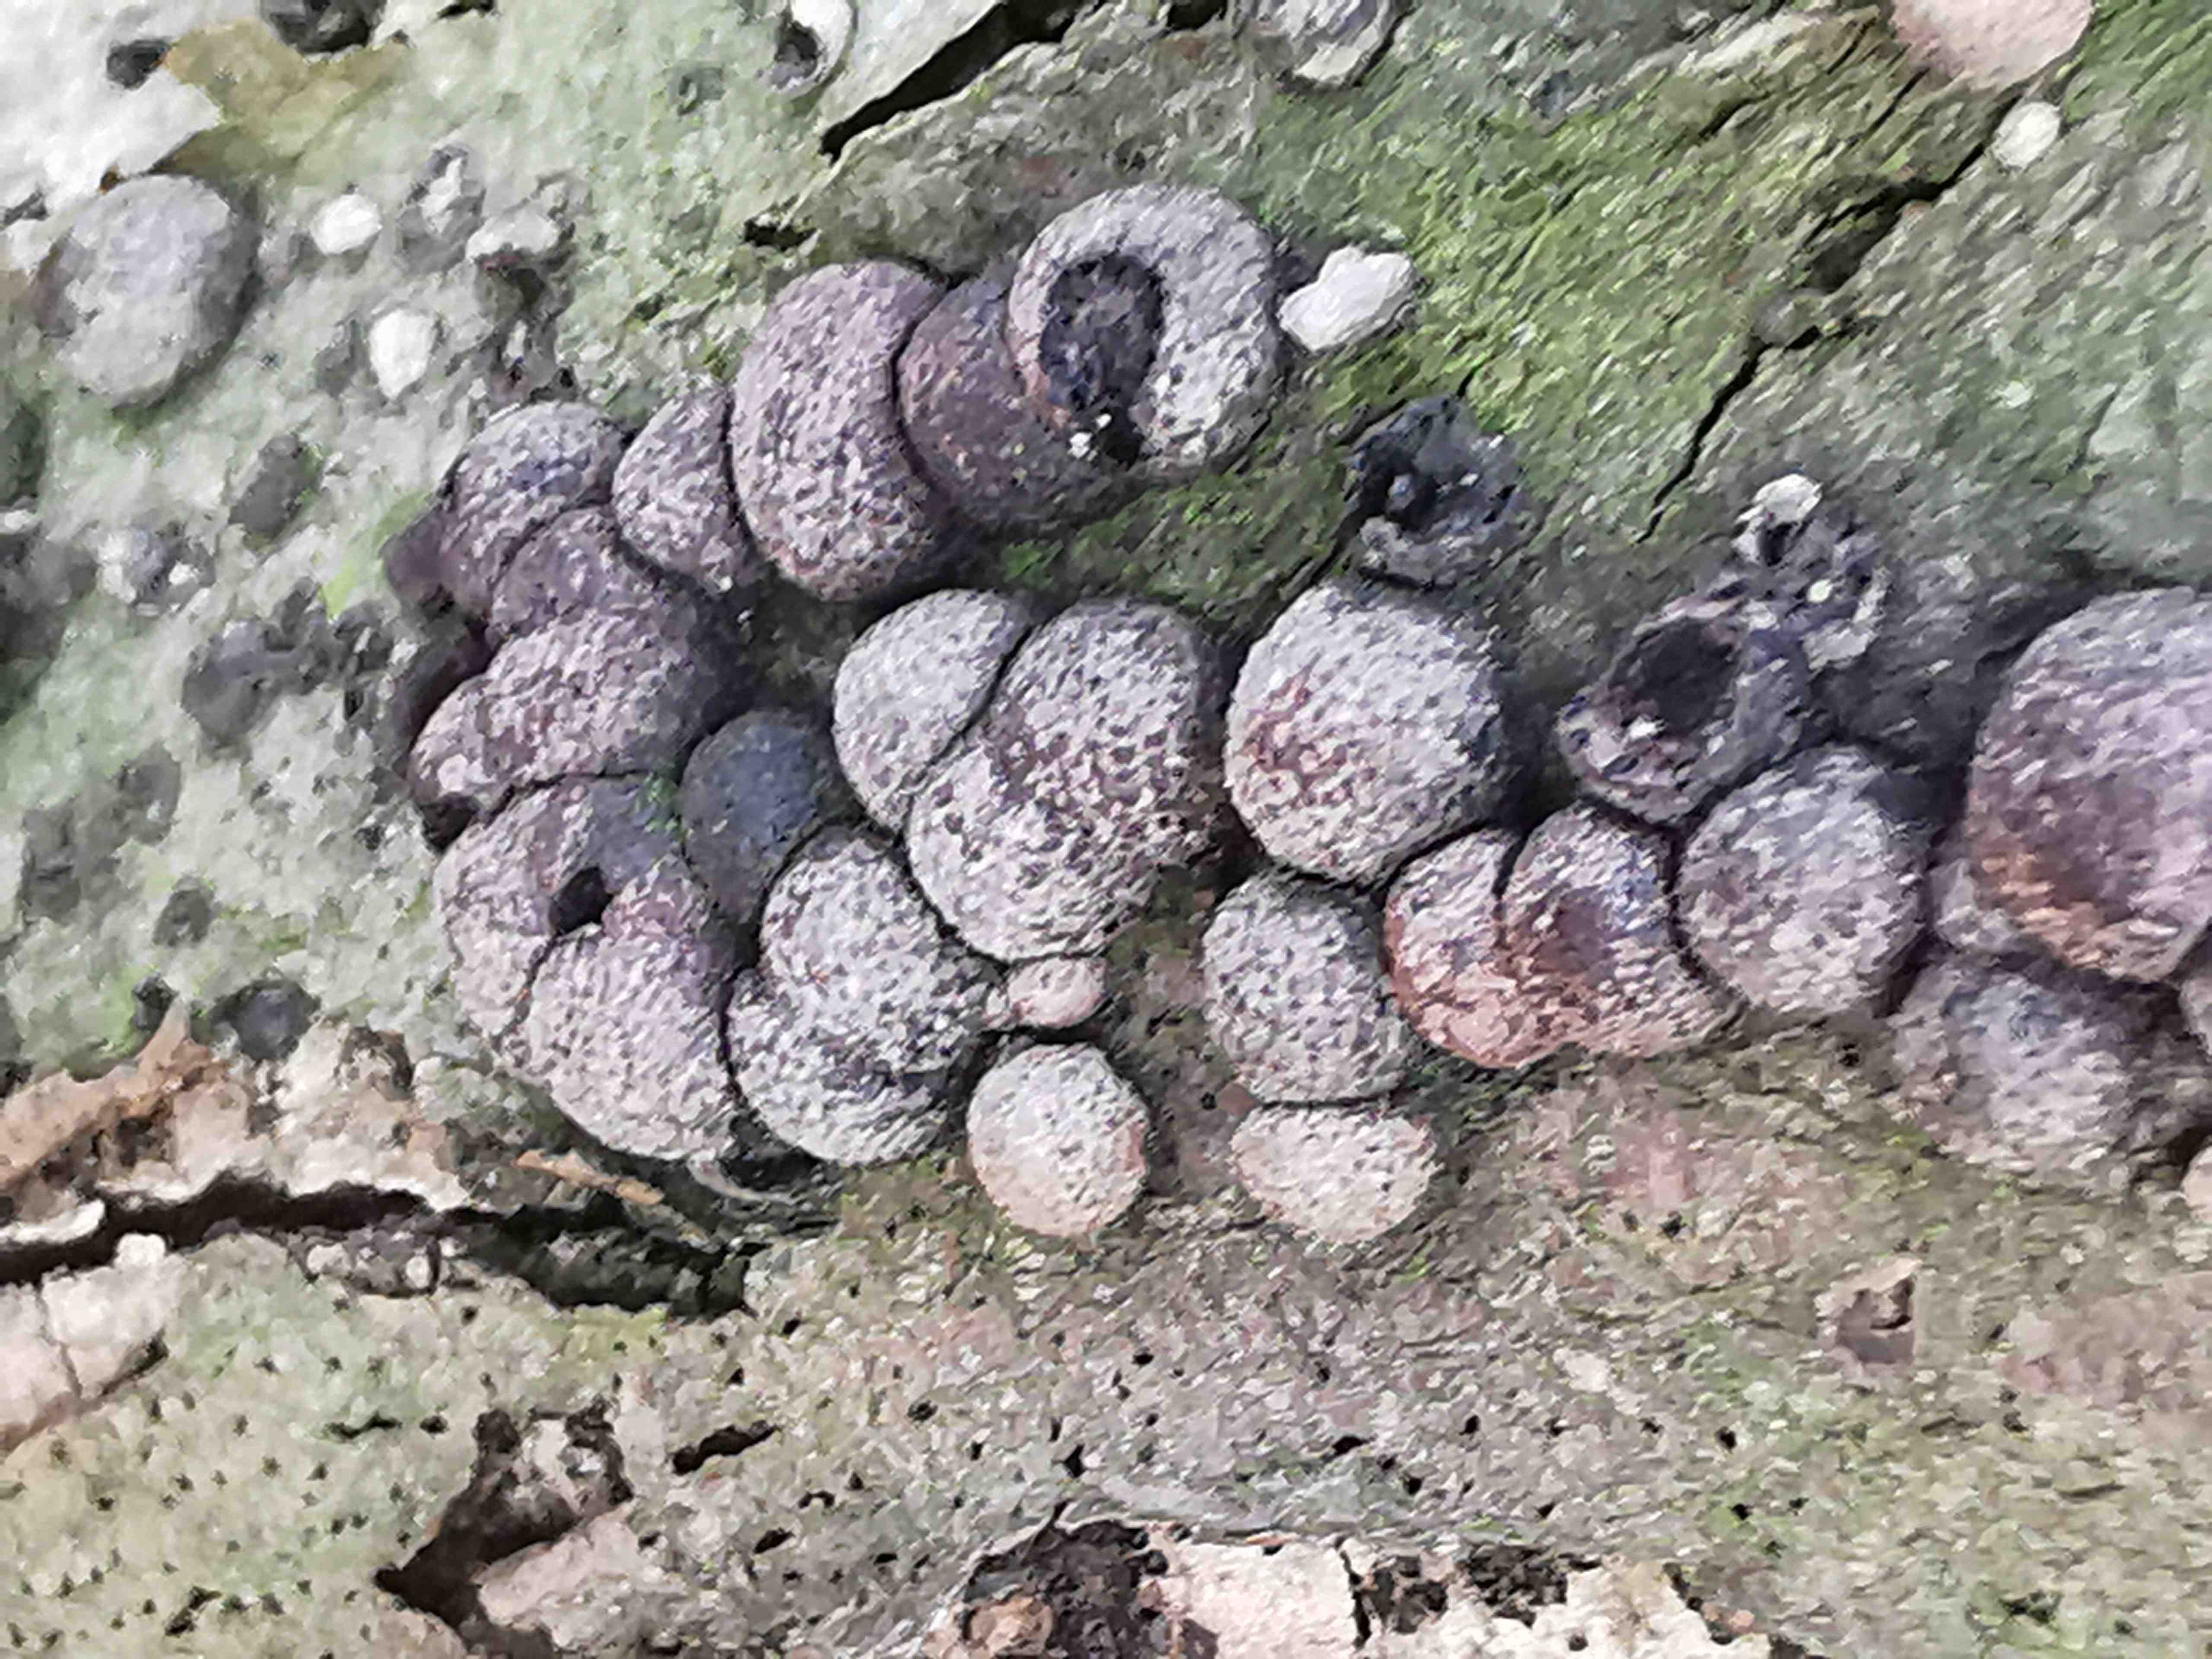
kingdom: Fungi
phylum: Ascomycota
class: Sordariomycetes
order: Xylariales
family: Hypoxylaceae
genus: Hypoxylon
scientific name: Hypoxylon fragiforme
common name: kuljordbær
